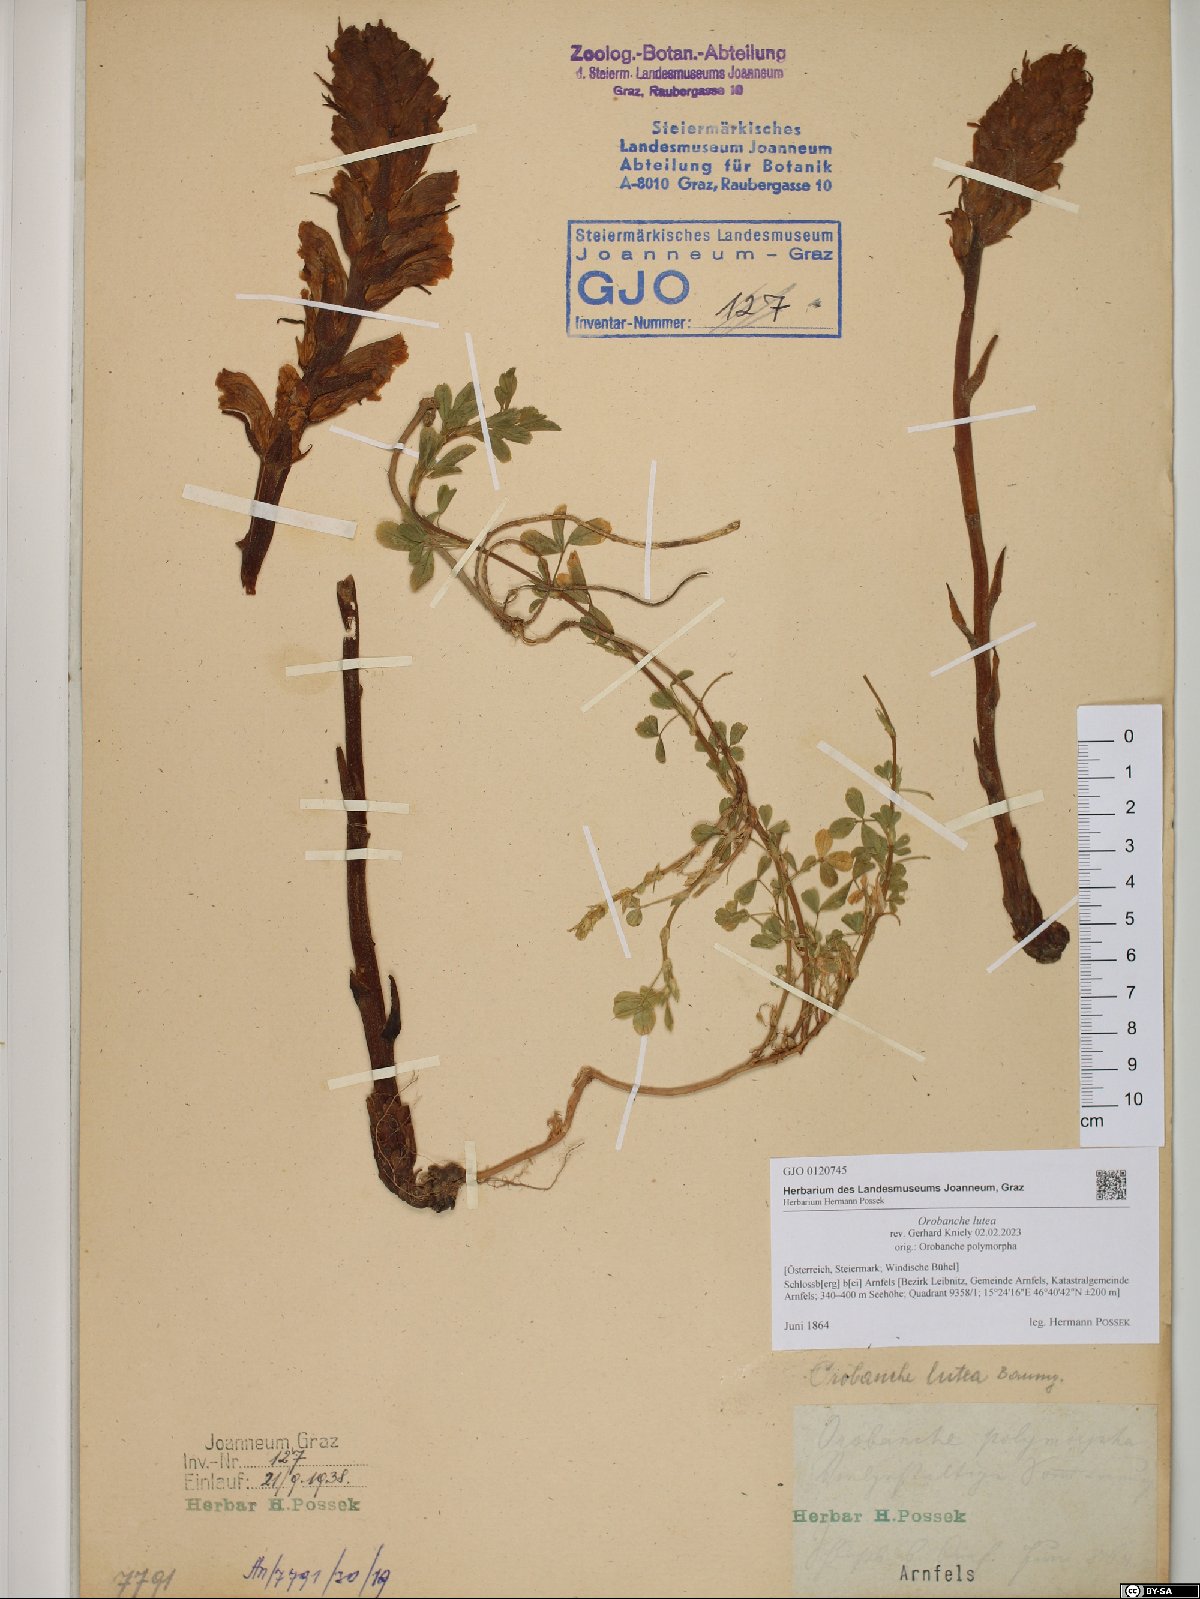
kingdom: Plantae
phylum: Tracheophyta
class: Magnoliopsida
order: Lamiales
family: Orobanchaceae
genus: Orobanche
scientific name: Orobanche lutea
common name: Yellow broomrape
